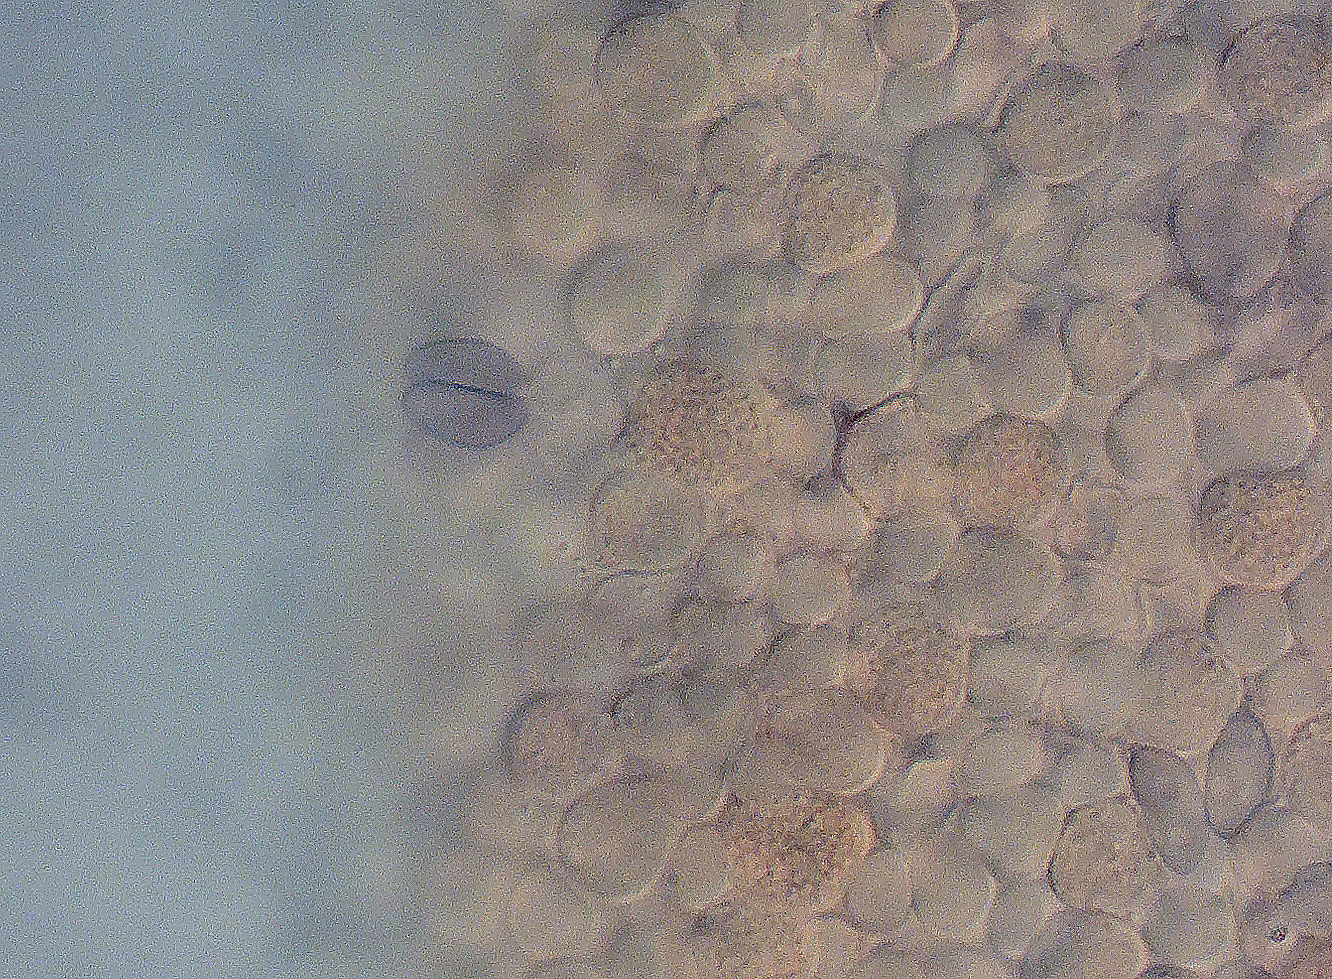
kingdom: Fungi
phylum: Basidiomycota
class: Agaricomycetes
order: Agaricales
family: Typhulaceae
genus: Typhula
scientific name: Typhula capitata
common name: hoved-trådkølle
